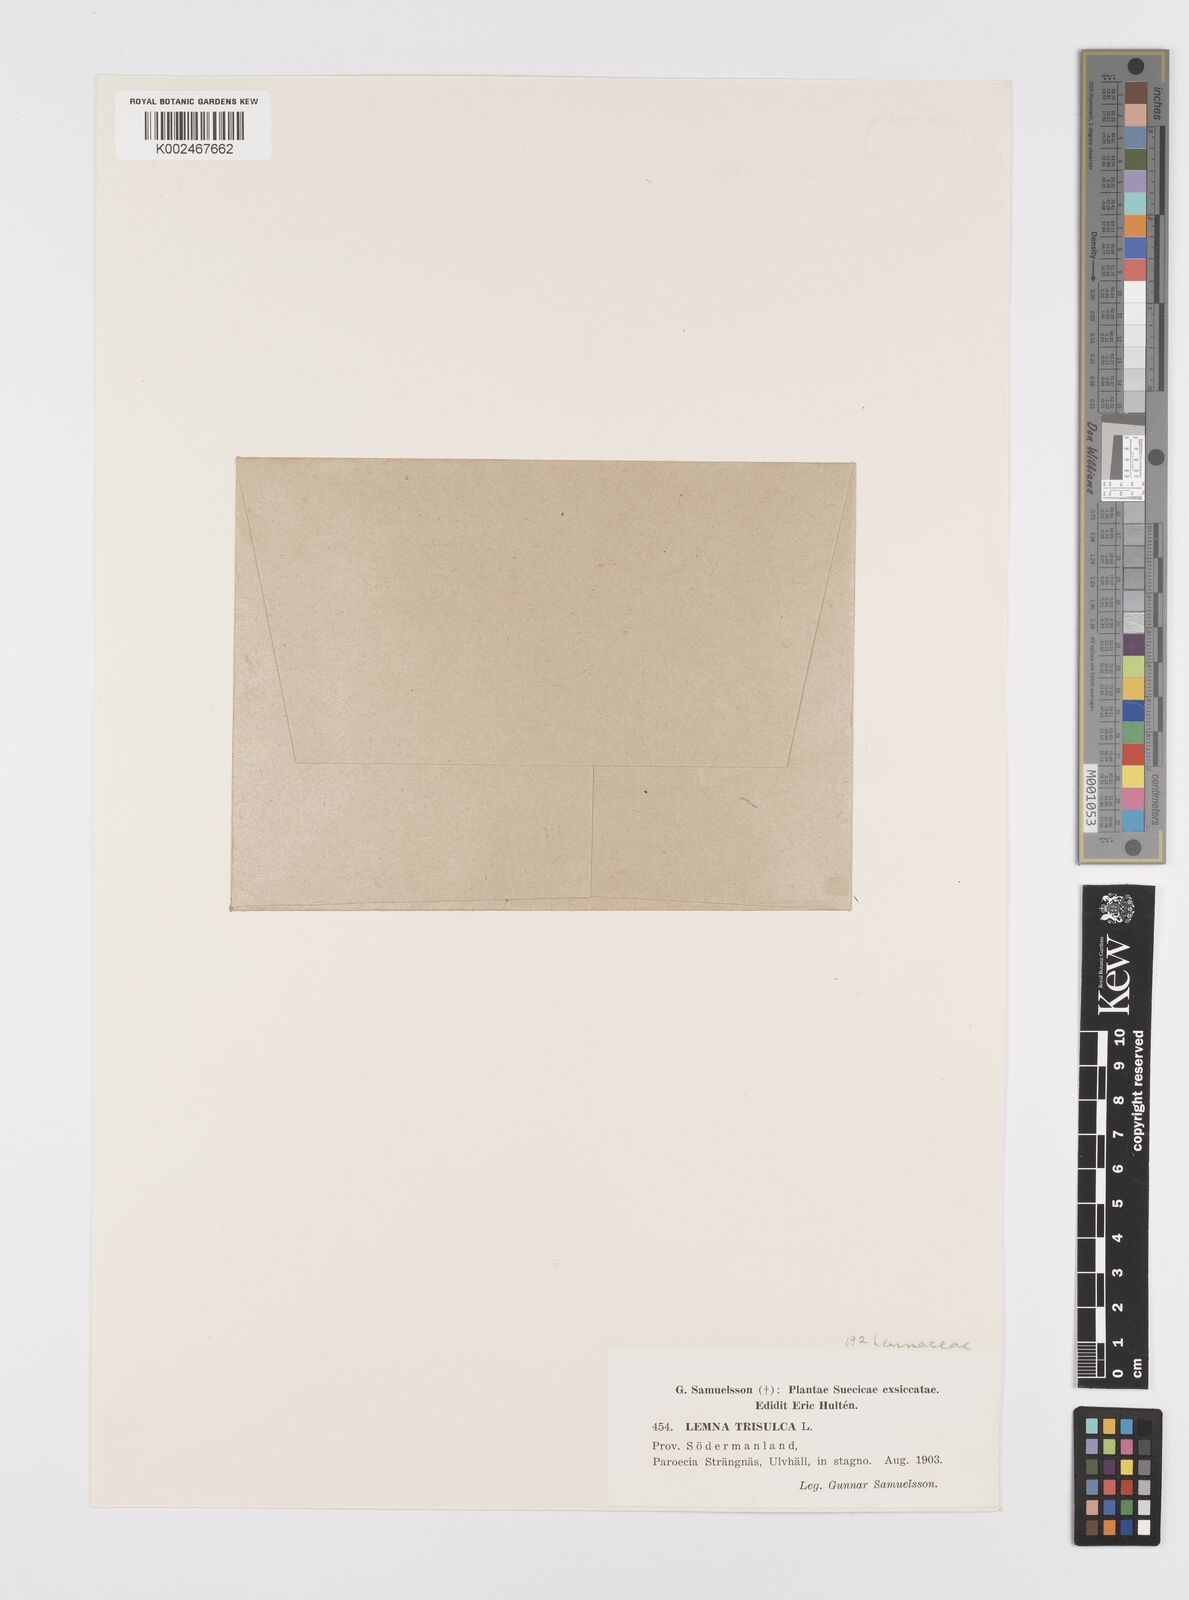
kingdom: Plantae
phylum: Tracheophyta
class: Liliopsida
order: Alismatales
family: Araceae
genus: Lemna
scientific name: Lemna trisulca
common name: Ivy-leaved duckweed
